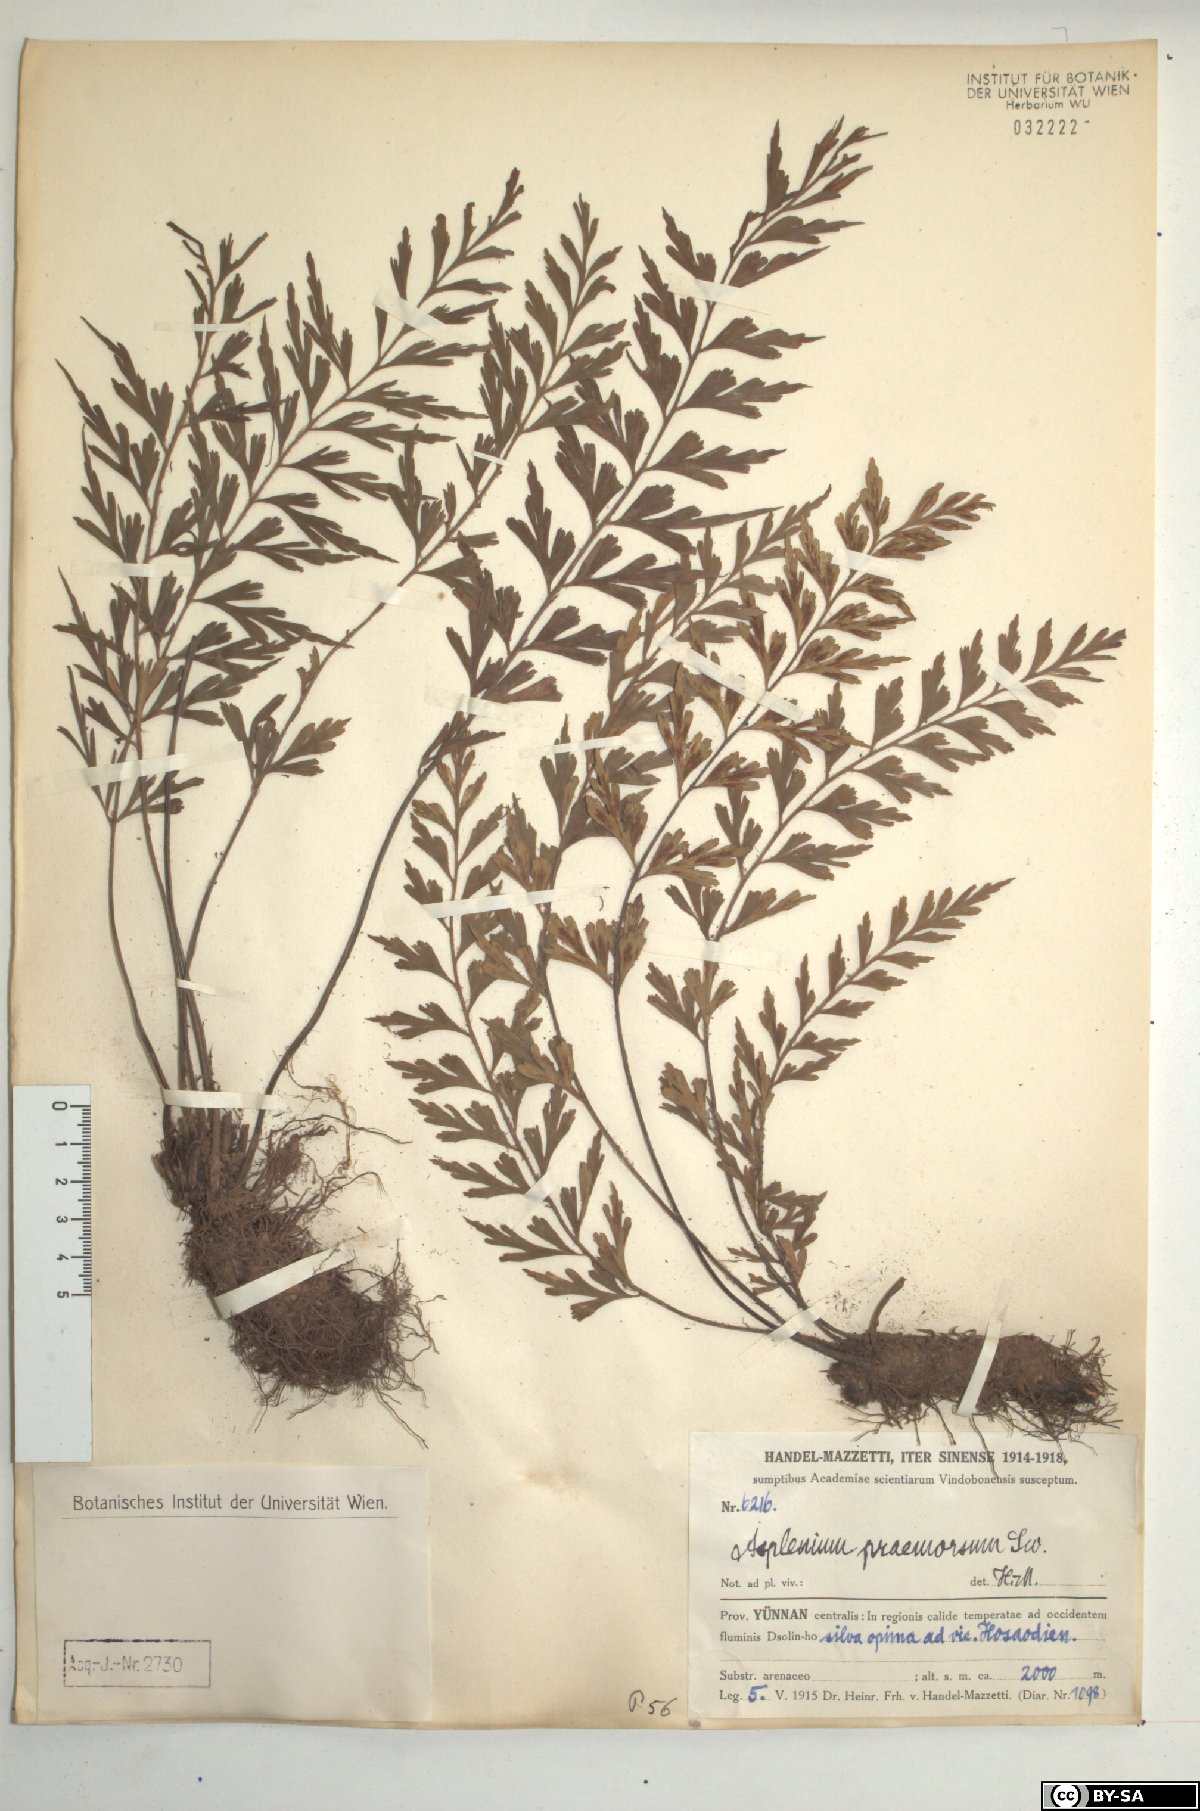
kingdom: Plantae
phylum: Tracheophyta
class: Polypodiopsida
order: Polypodiales
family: Aspleniaceae
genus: Asplenium
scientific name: Asplenium praemorsum
